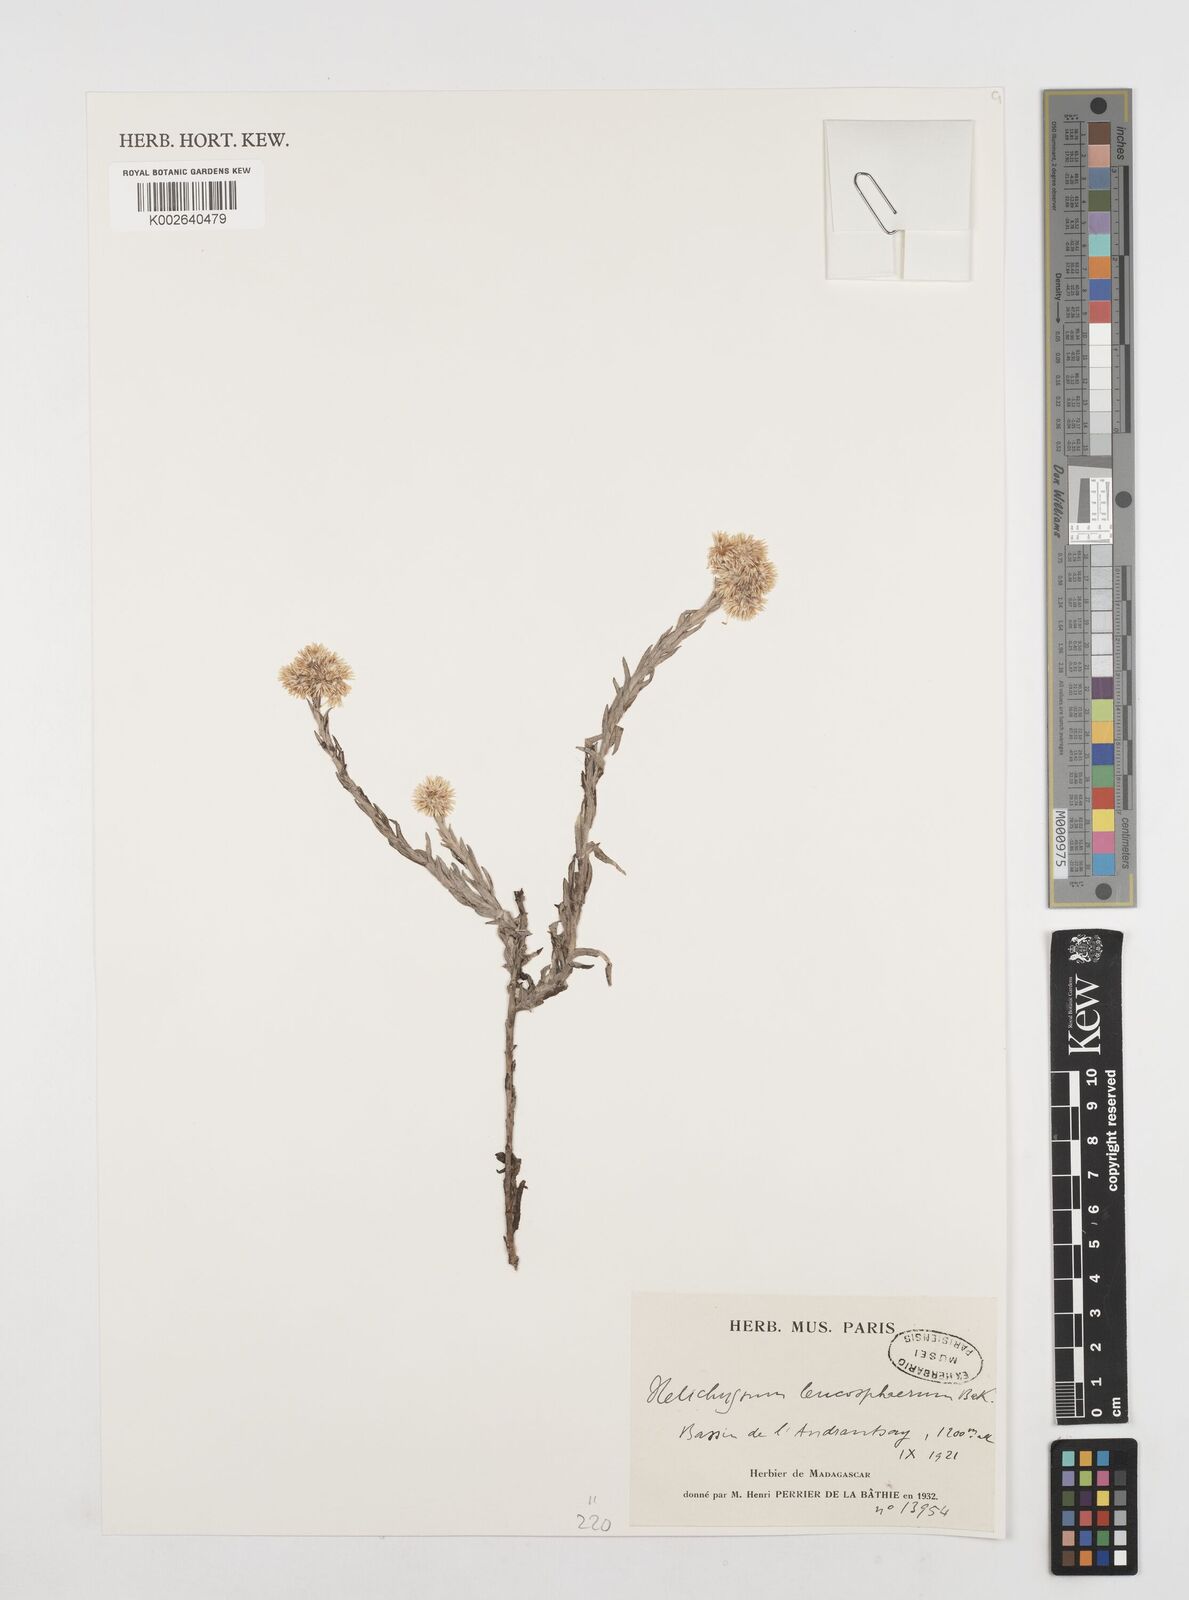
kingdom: Plantae
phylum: Tracheophyta
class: Magnoliopsida
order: Asterales
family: Asteraceae
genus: Helichrysum
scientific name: Helichrysum leucosphaerum
